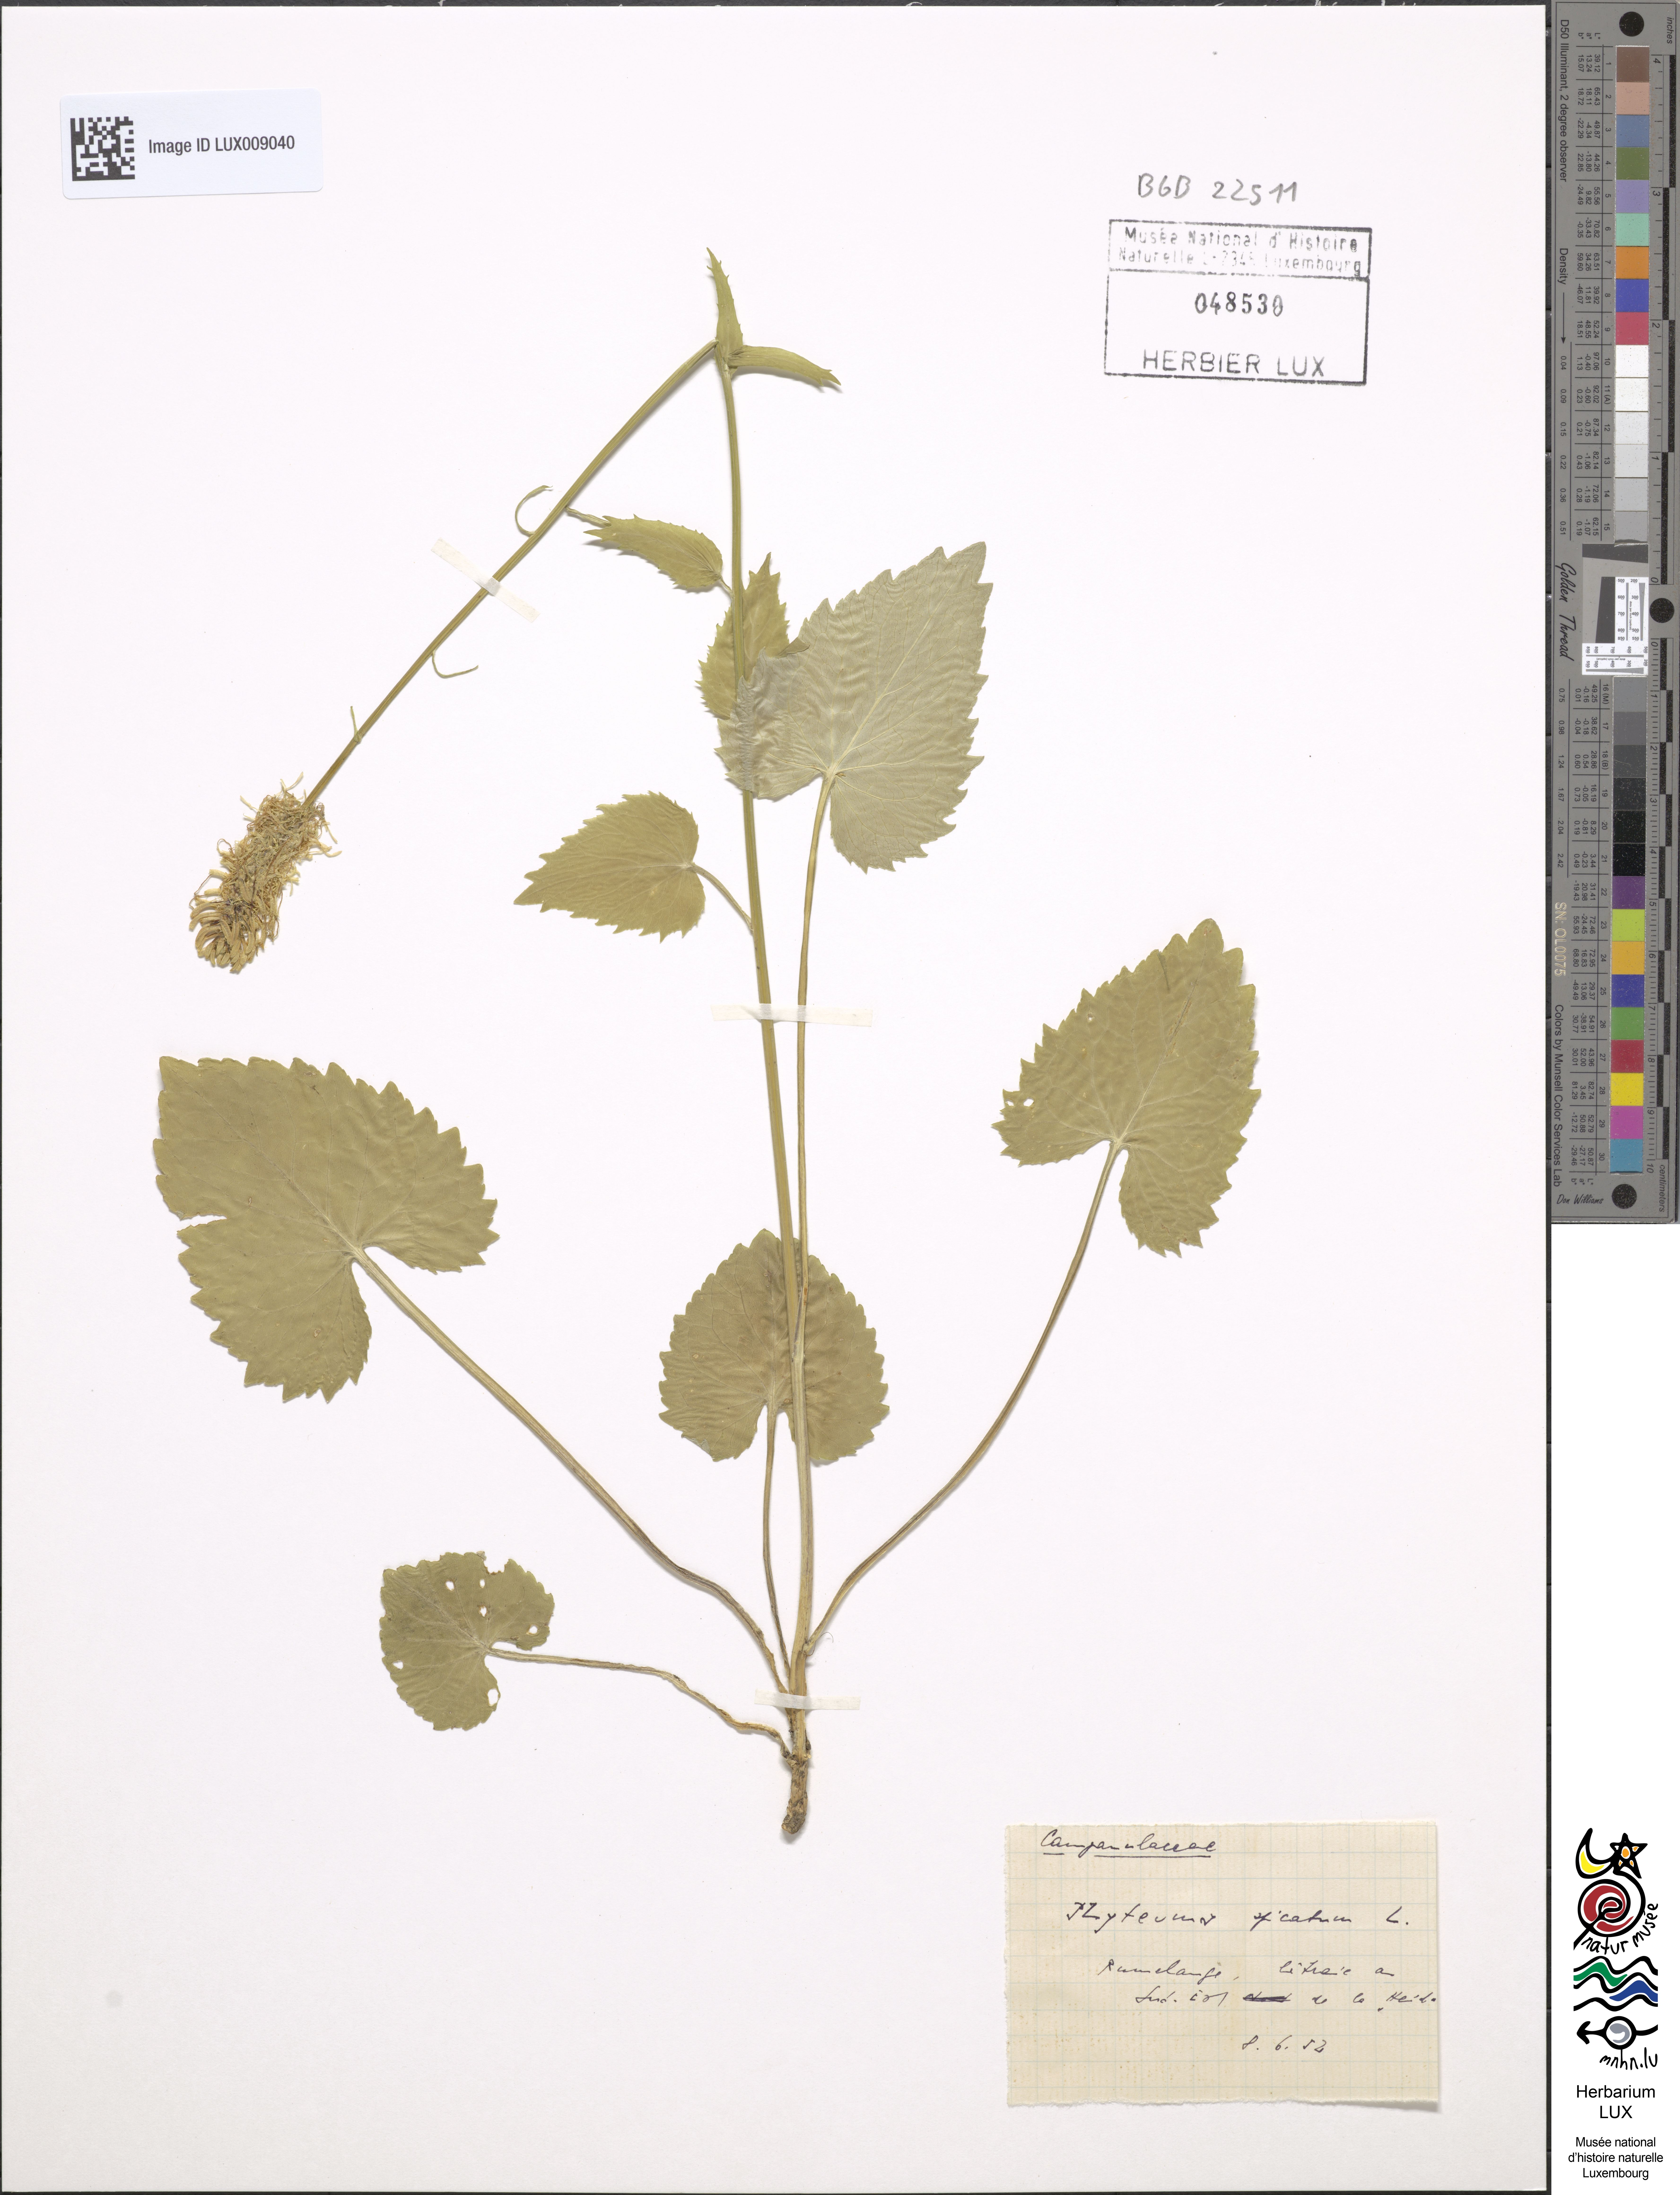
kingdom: Plantae
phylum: Tracheophyta
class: Magnoliopsida
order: Asterales
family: Campanulaceae
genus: Phyteuma
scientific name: Phyteuma spicatum
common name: Spiked rampion
